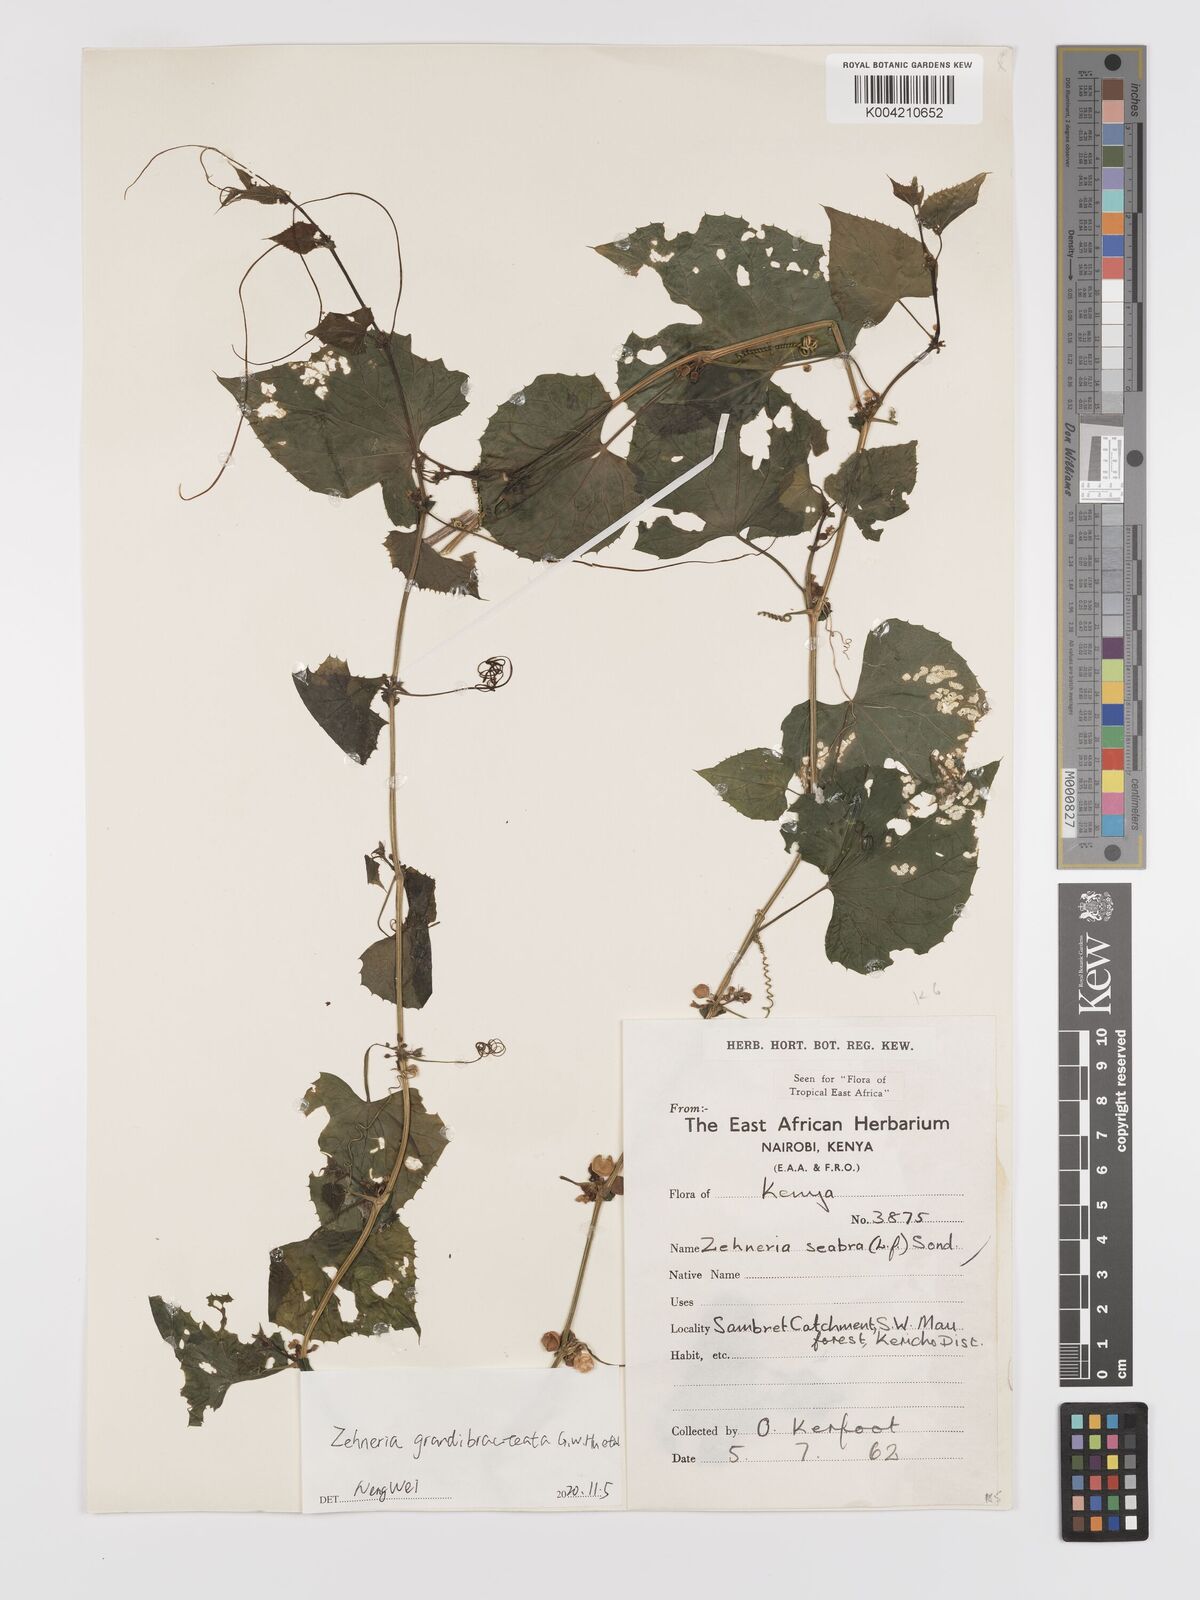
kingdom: Plantae
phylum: Tracheophyta
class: Magnoliopsida
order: Cucurbitales
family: Cucurbitaceae
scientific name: Cucurbitaceae
